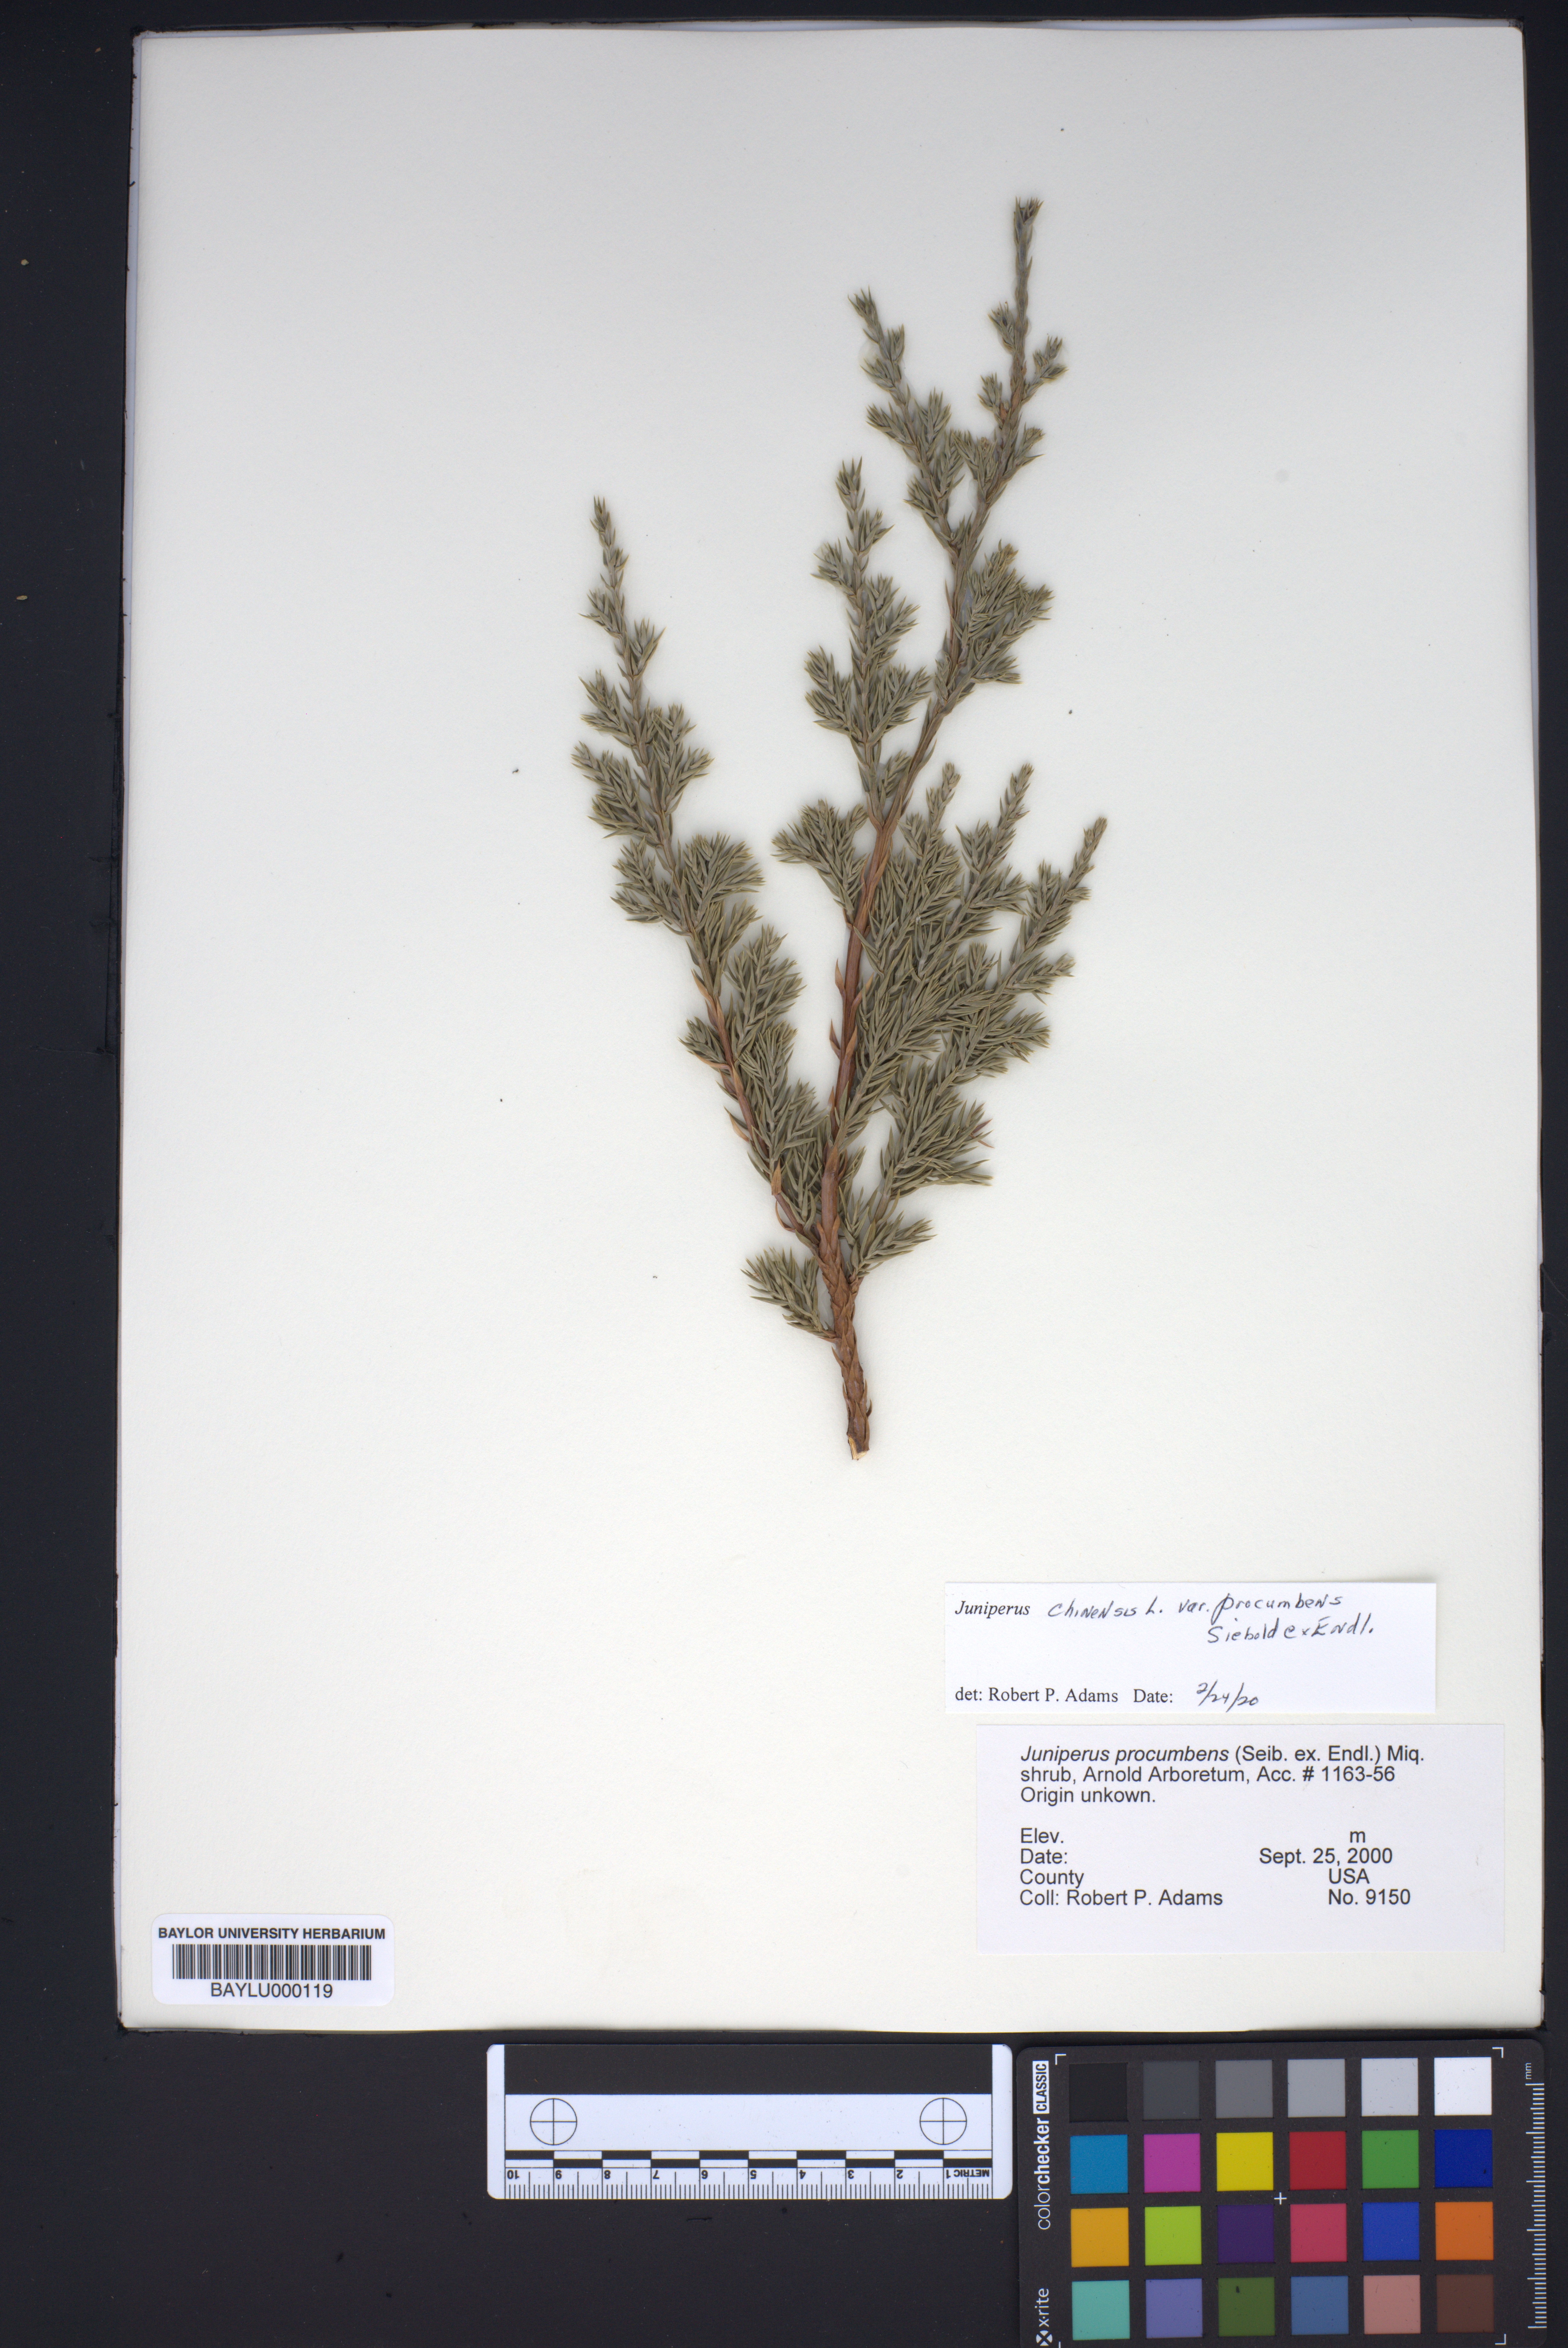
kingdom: Plantae
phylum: Tracheophyta
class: Pinopsida
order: Pinales
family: Cupressaceae
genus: Juniperus
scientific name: Juniperus procumbens
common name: Creeping juniper
